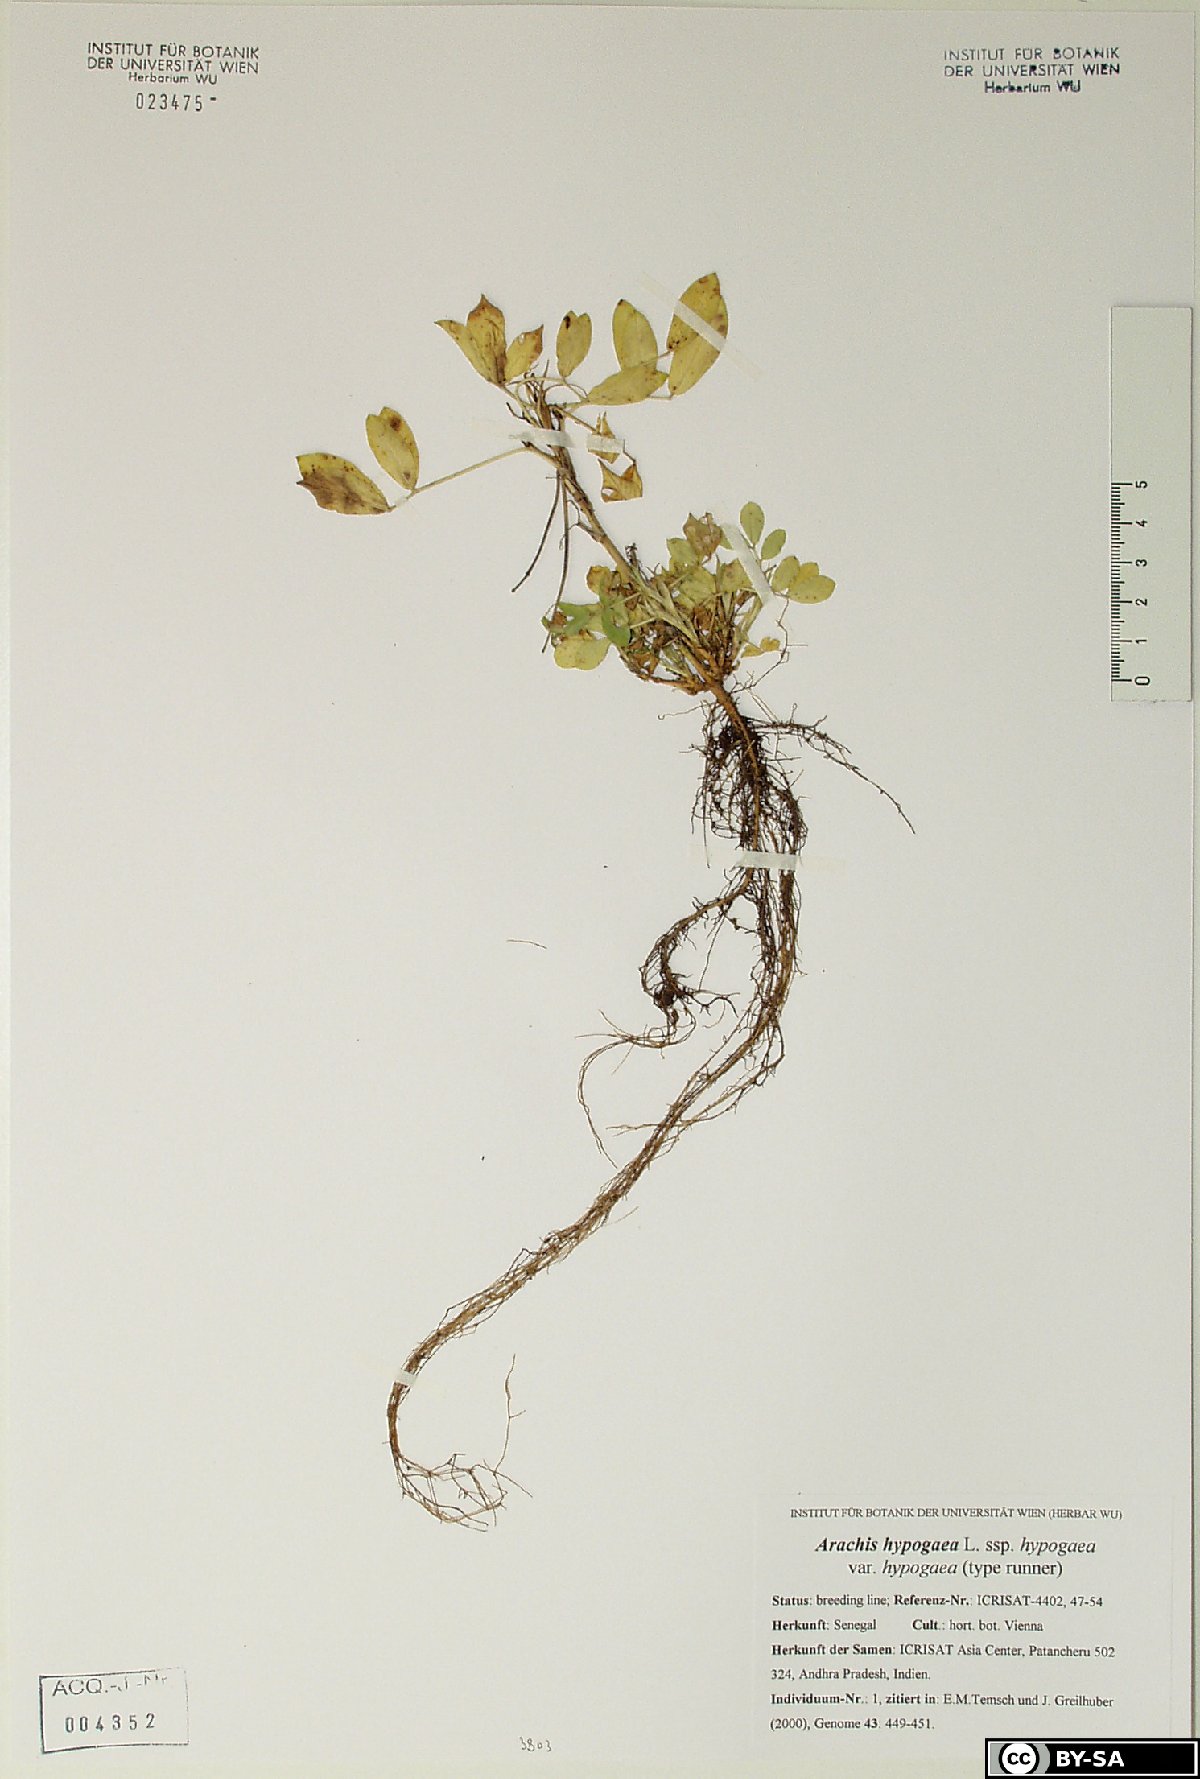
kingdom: Plantae
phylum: Tracheophyta
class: Magnoliopsida
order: Fabales
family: Fabaceae
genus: Arachis
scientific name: Arachis hypogaea
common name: Peanut
